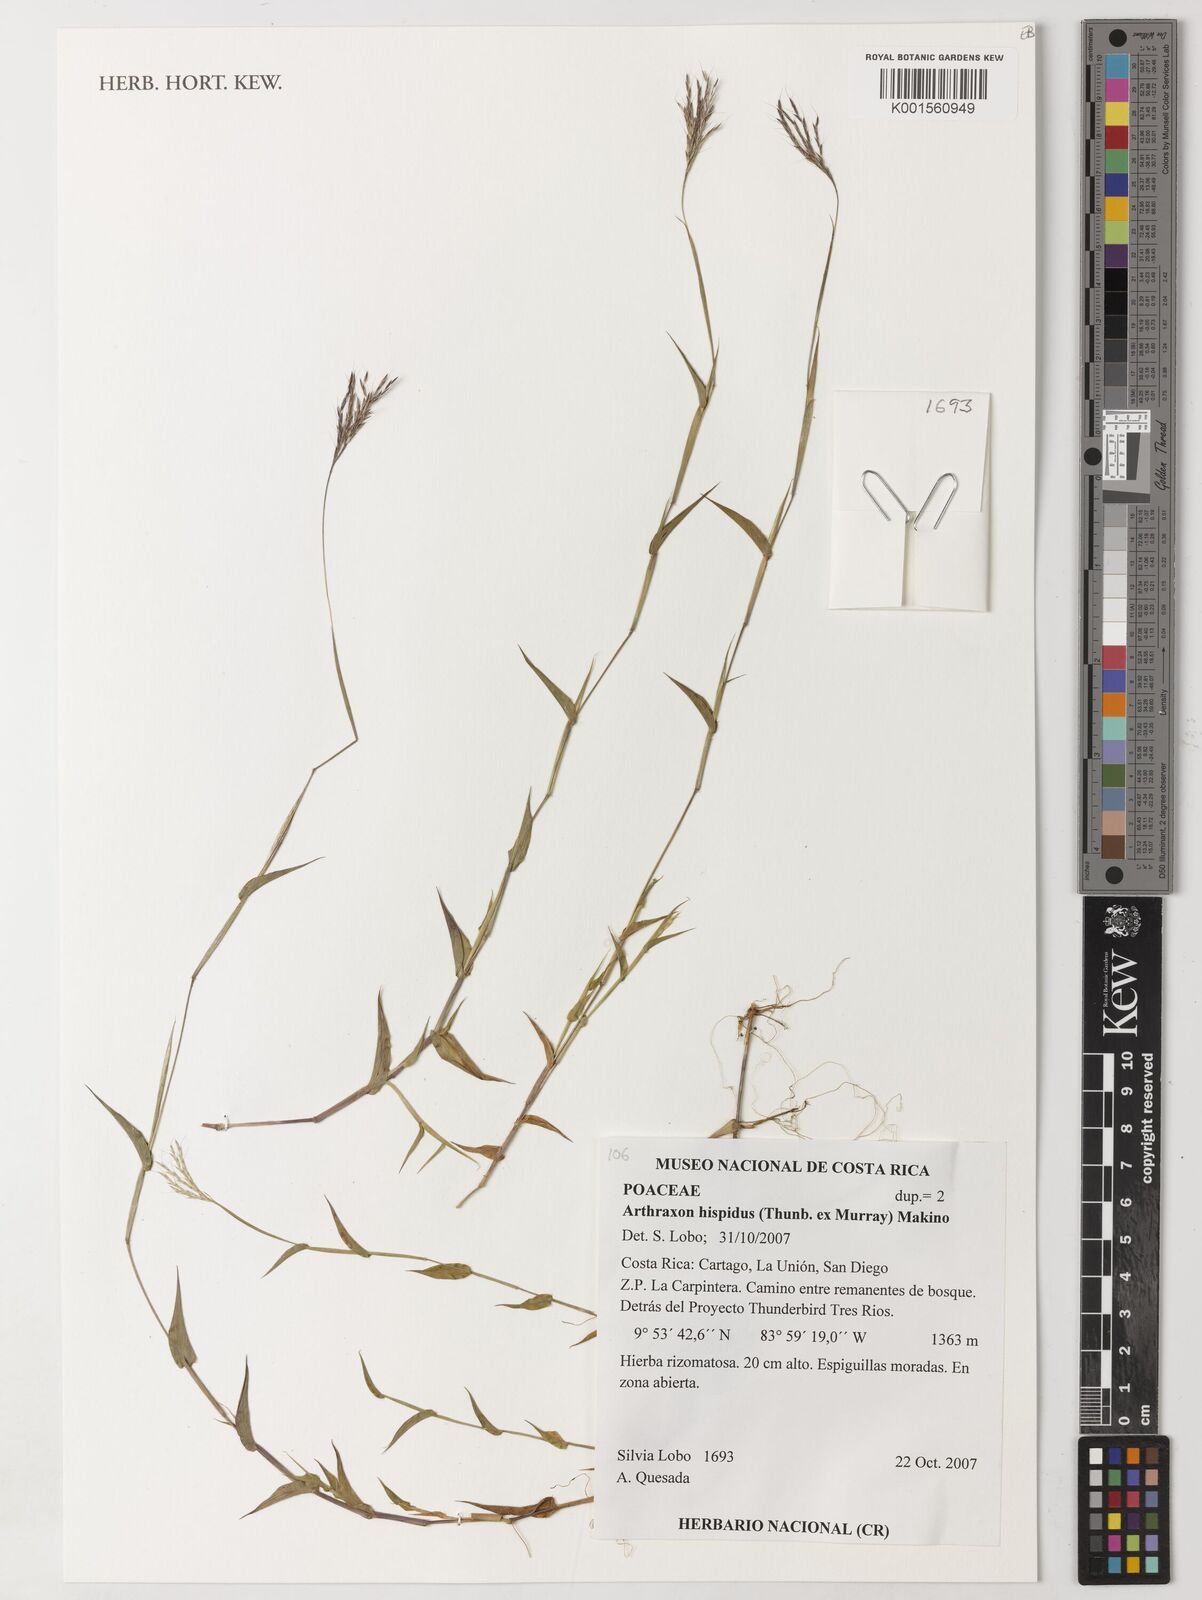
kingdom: Plantae
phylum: Tracheophyta
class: Liliopsida
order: Poales
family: Poaceae
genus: Arthraxon
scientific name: Arthraxon hispidus
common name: Small carpgrass
